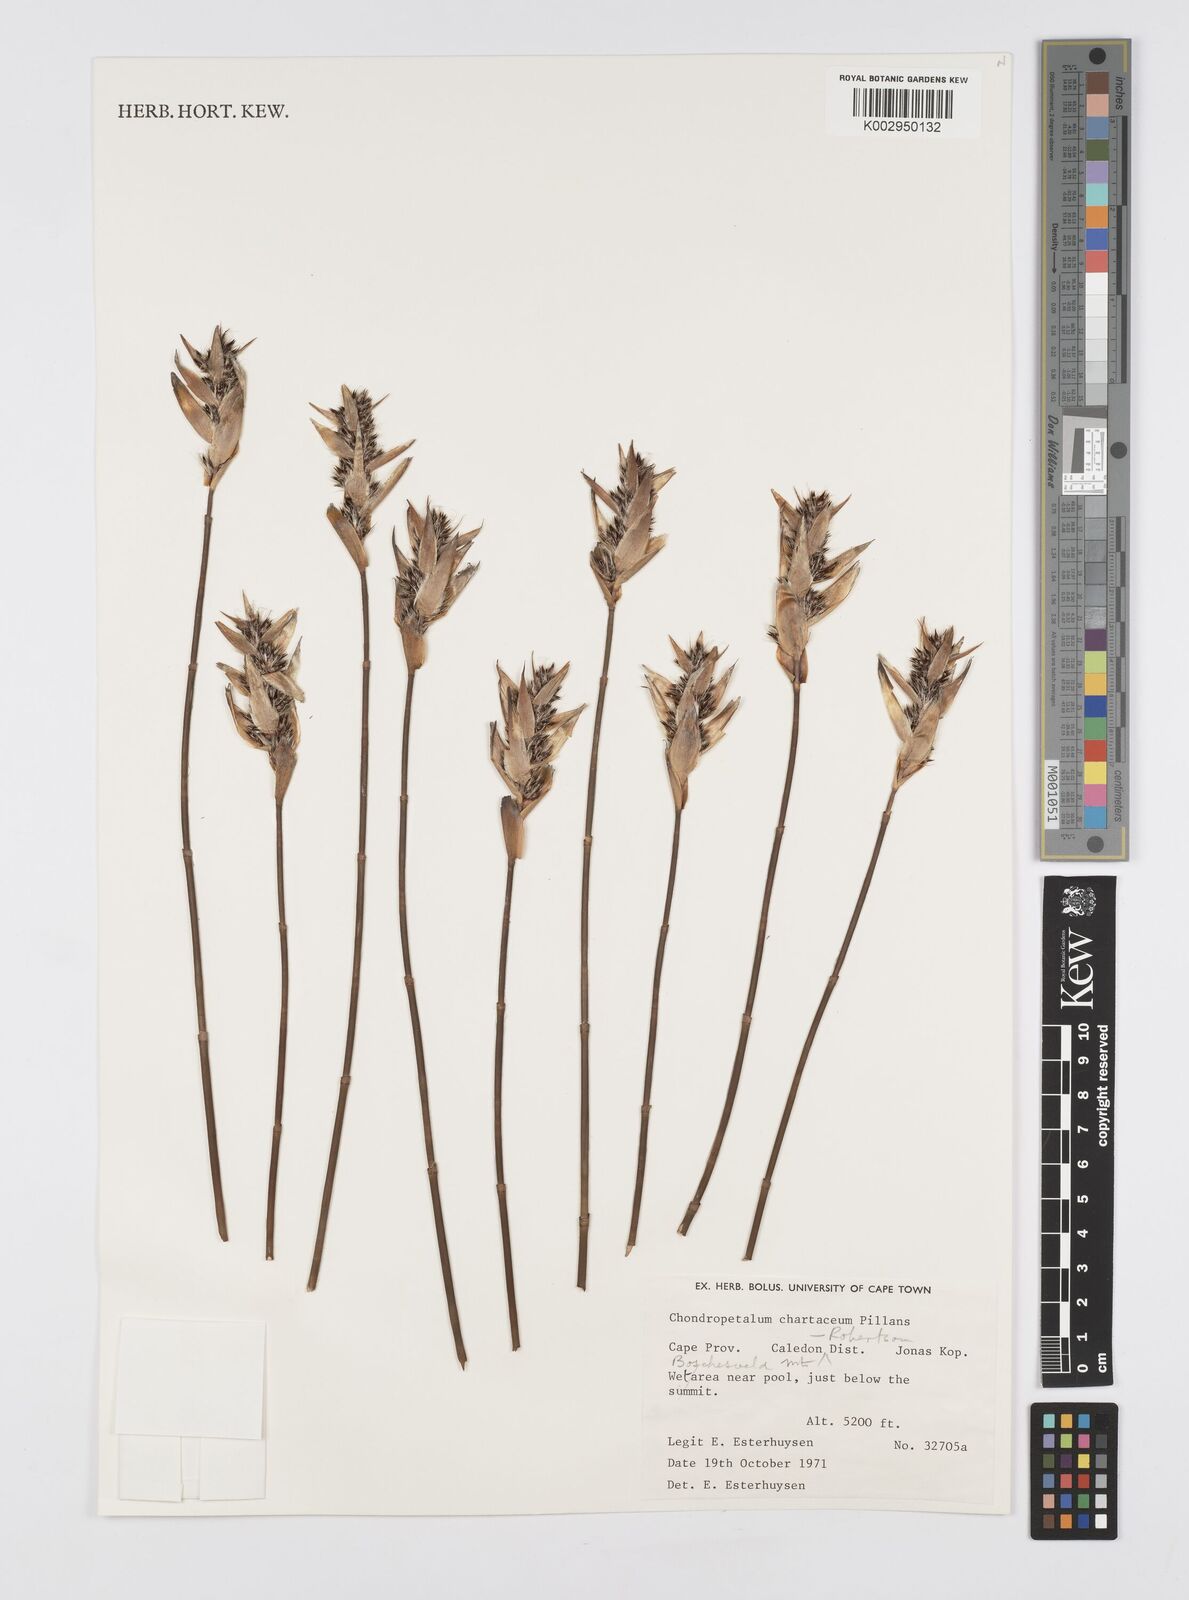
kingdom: Plantae
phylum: Tracheophyta
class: Liliopsida
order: Poales
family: Restionaceae
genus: Askidiosperma
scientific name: Askidiosperma chartaceum
